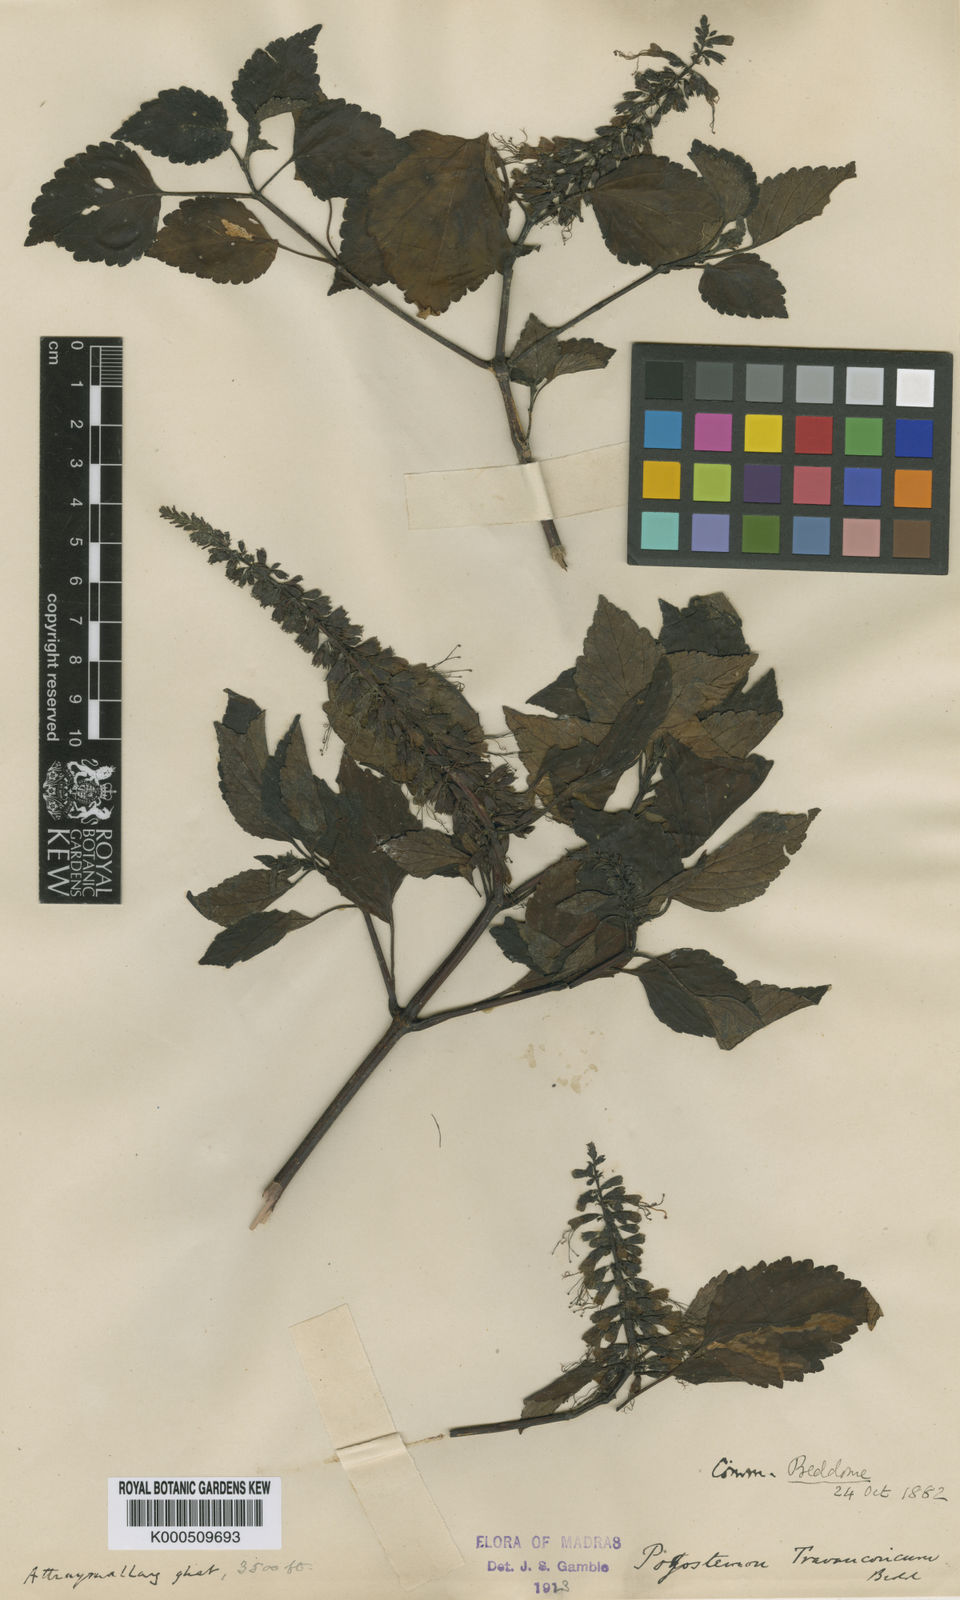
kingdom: Plantae
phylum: Tracheophyta
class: Magnoliopsida
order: Lamiales
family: Lamiaceae
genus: Pogostemon
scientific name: Pogostemon travancoricus
